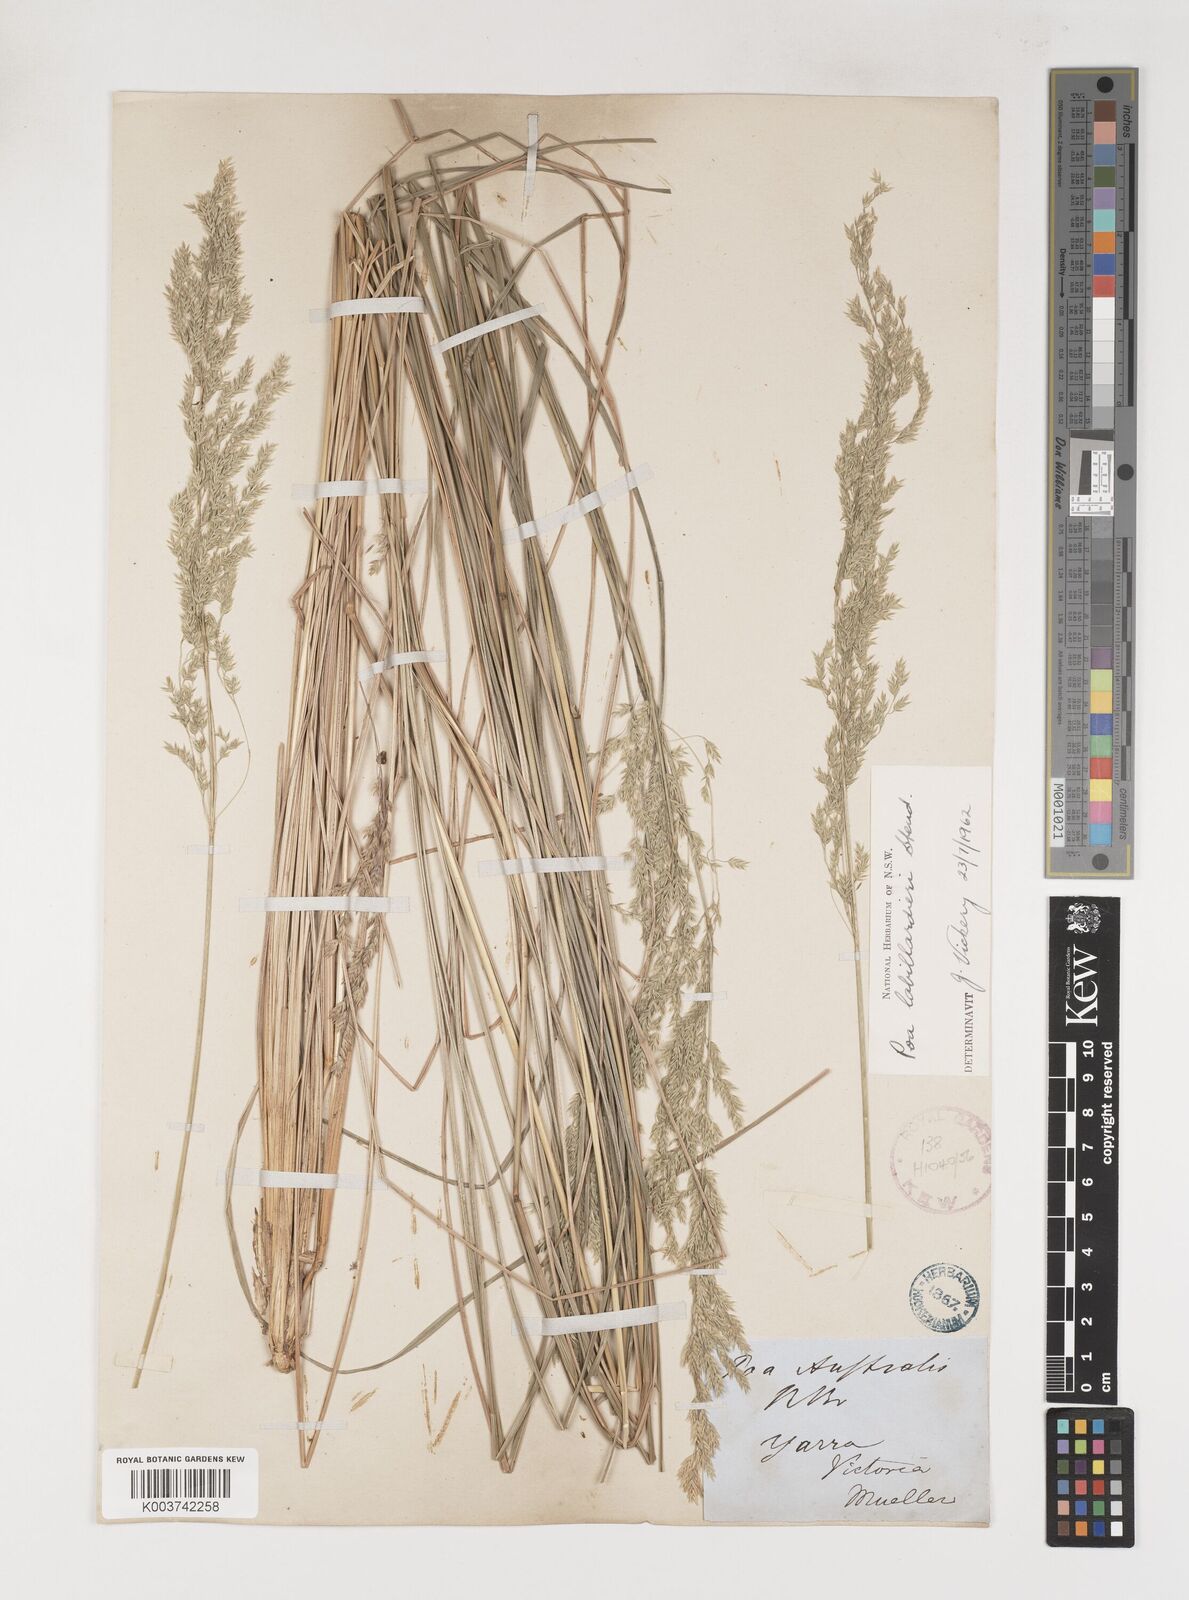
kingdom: Plantae
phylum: Tracheophyta
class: Liliopsida
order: Poales
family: Poaceae
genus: Poa
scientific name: Poa labillardierei
